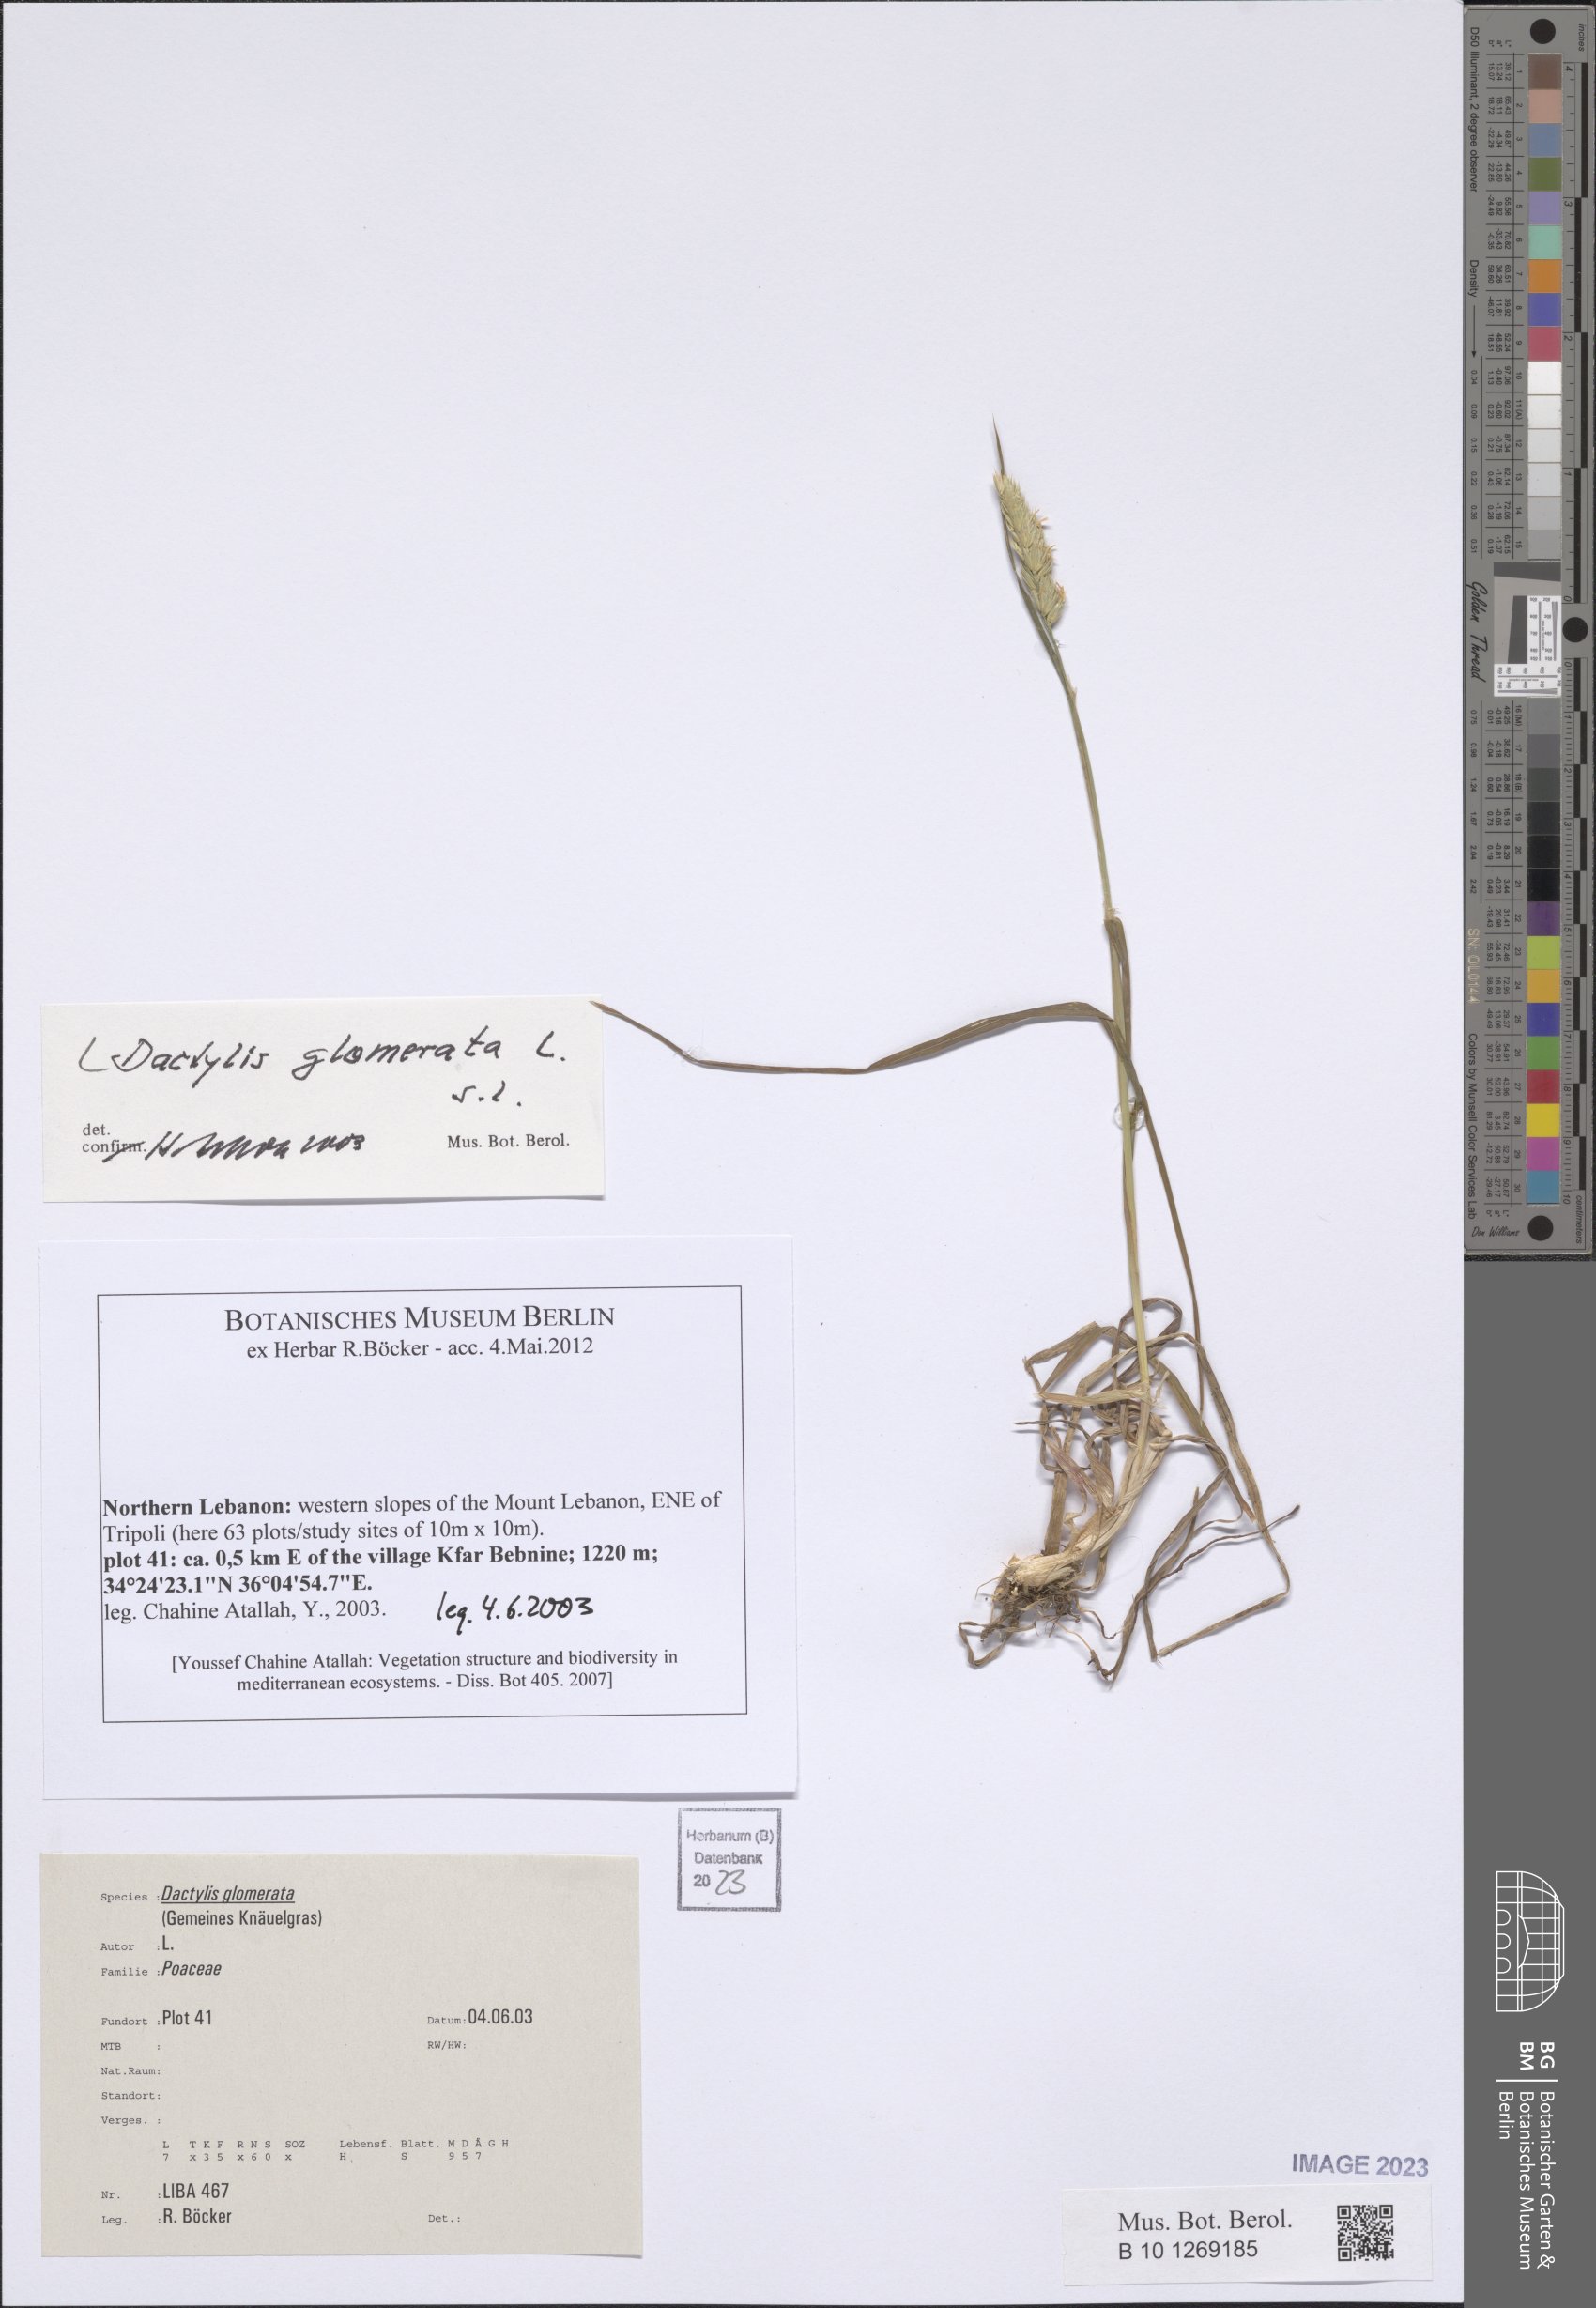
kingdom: Plantae
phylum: Tracheophyta
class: Liliopsida
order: Poales
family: Poaceae
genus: Dactylis
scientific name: Dactylis glomerata
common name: Orchardgrass
